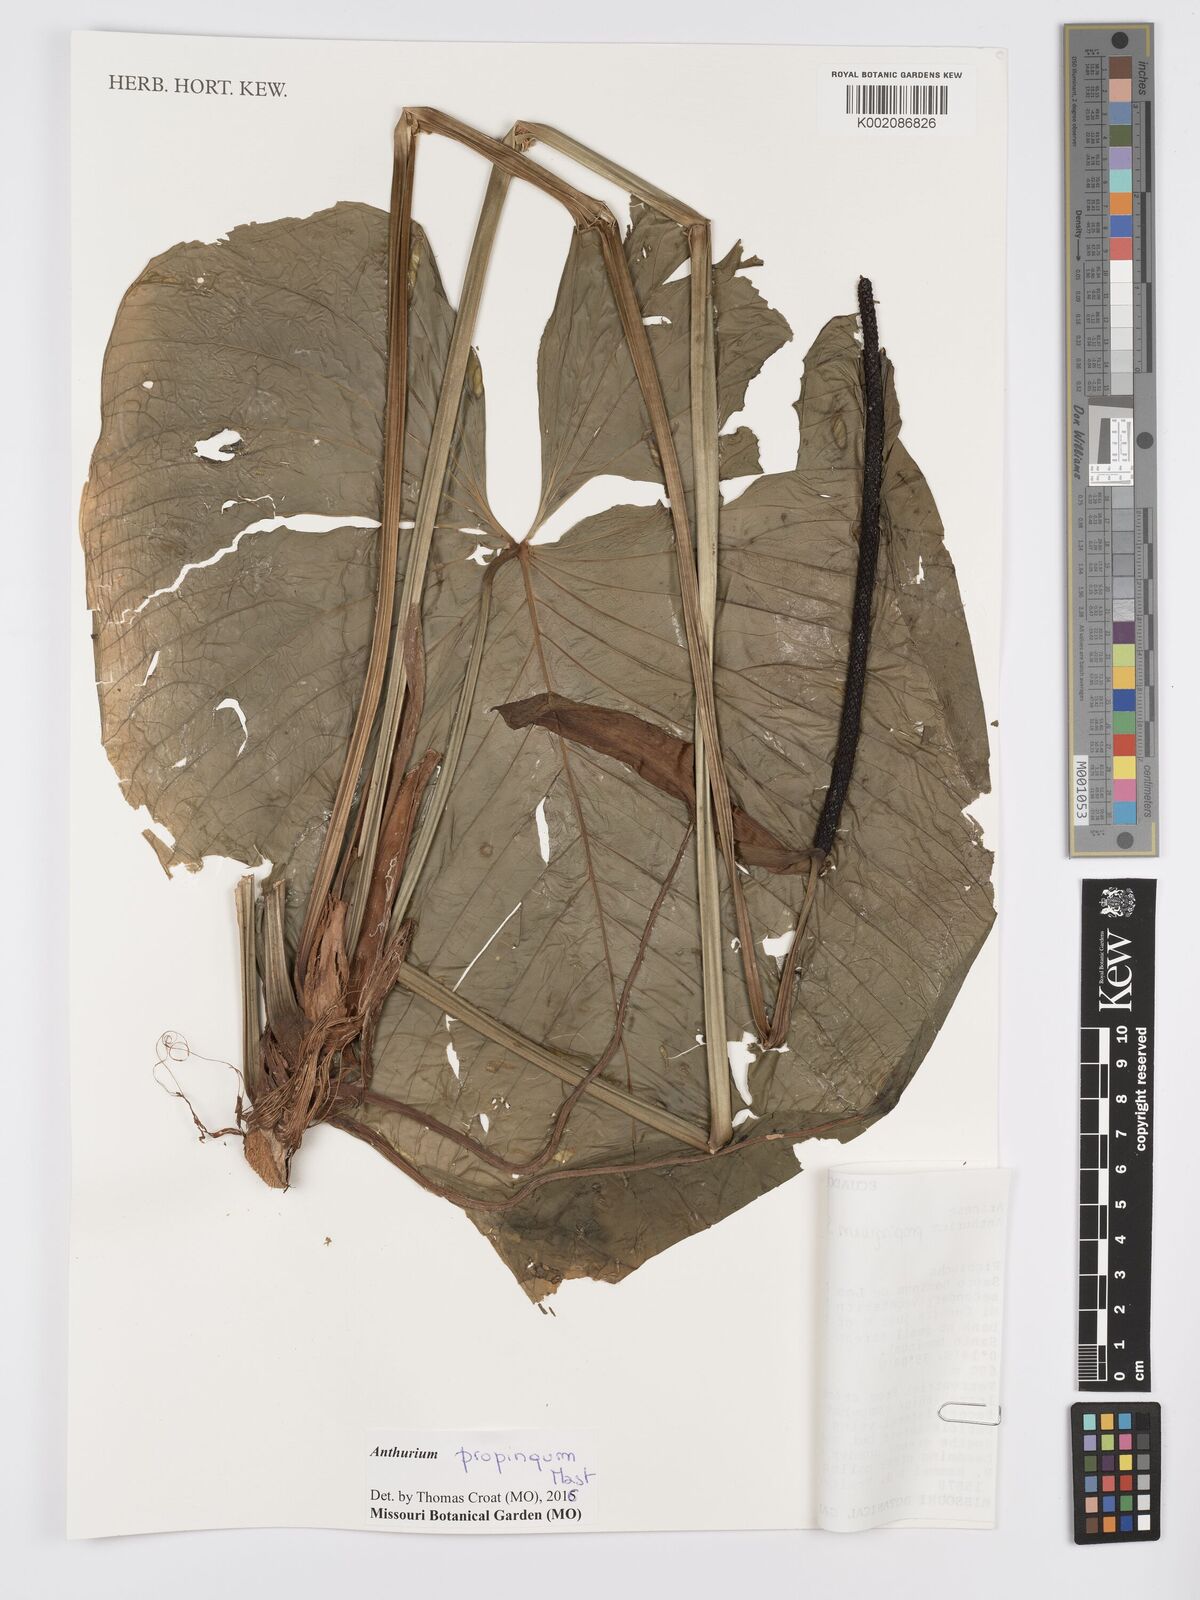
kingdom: Plantae
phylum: Tracheophyta
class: Liliopsida
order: Alismatales
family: Araceae
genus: Anthurium
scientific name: Anthurium cuspidatum
